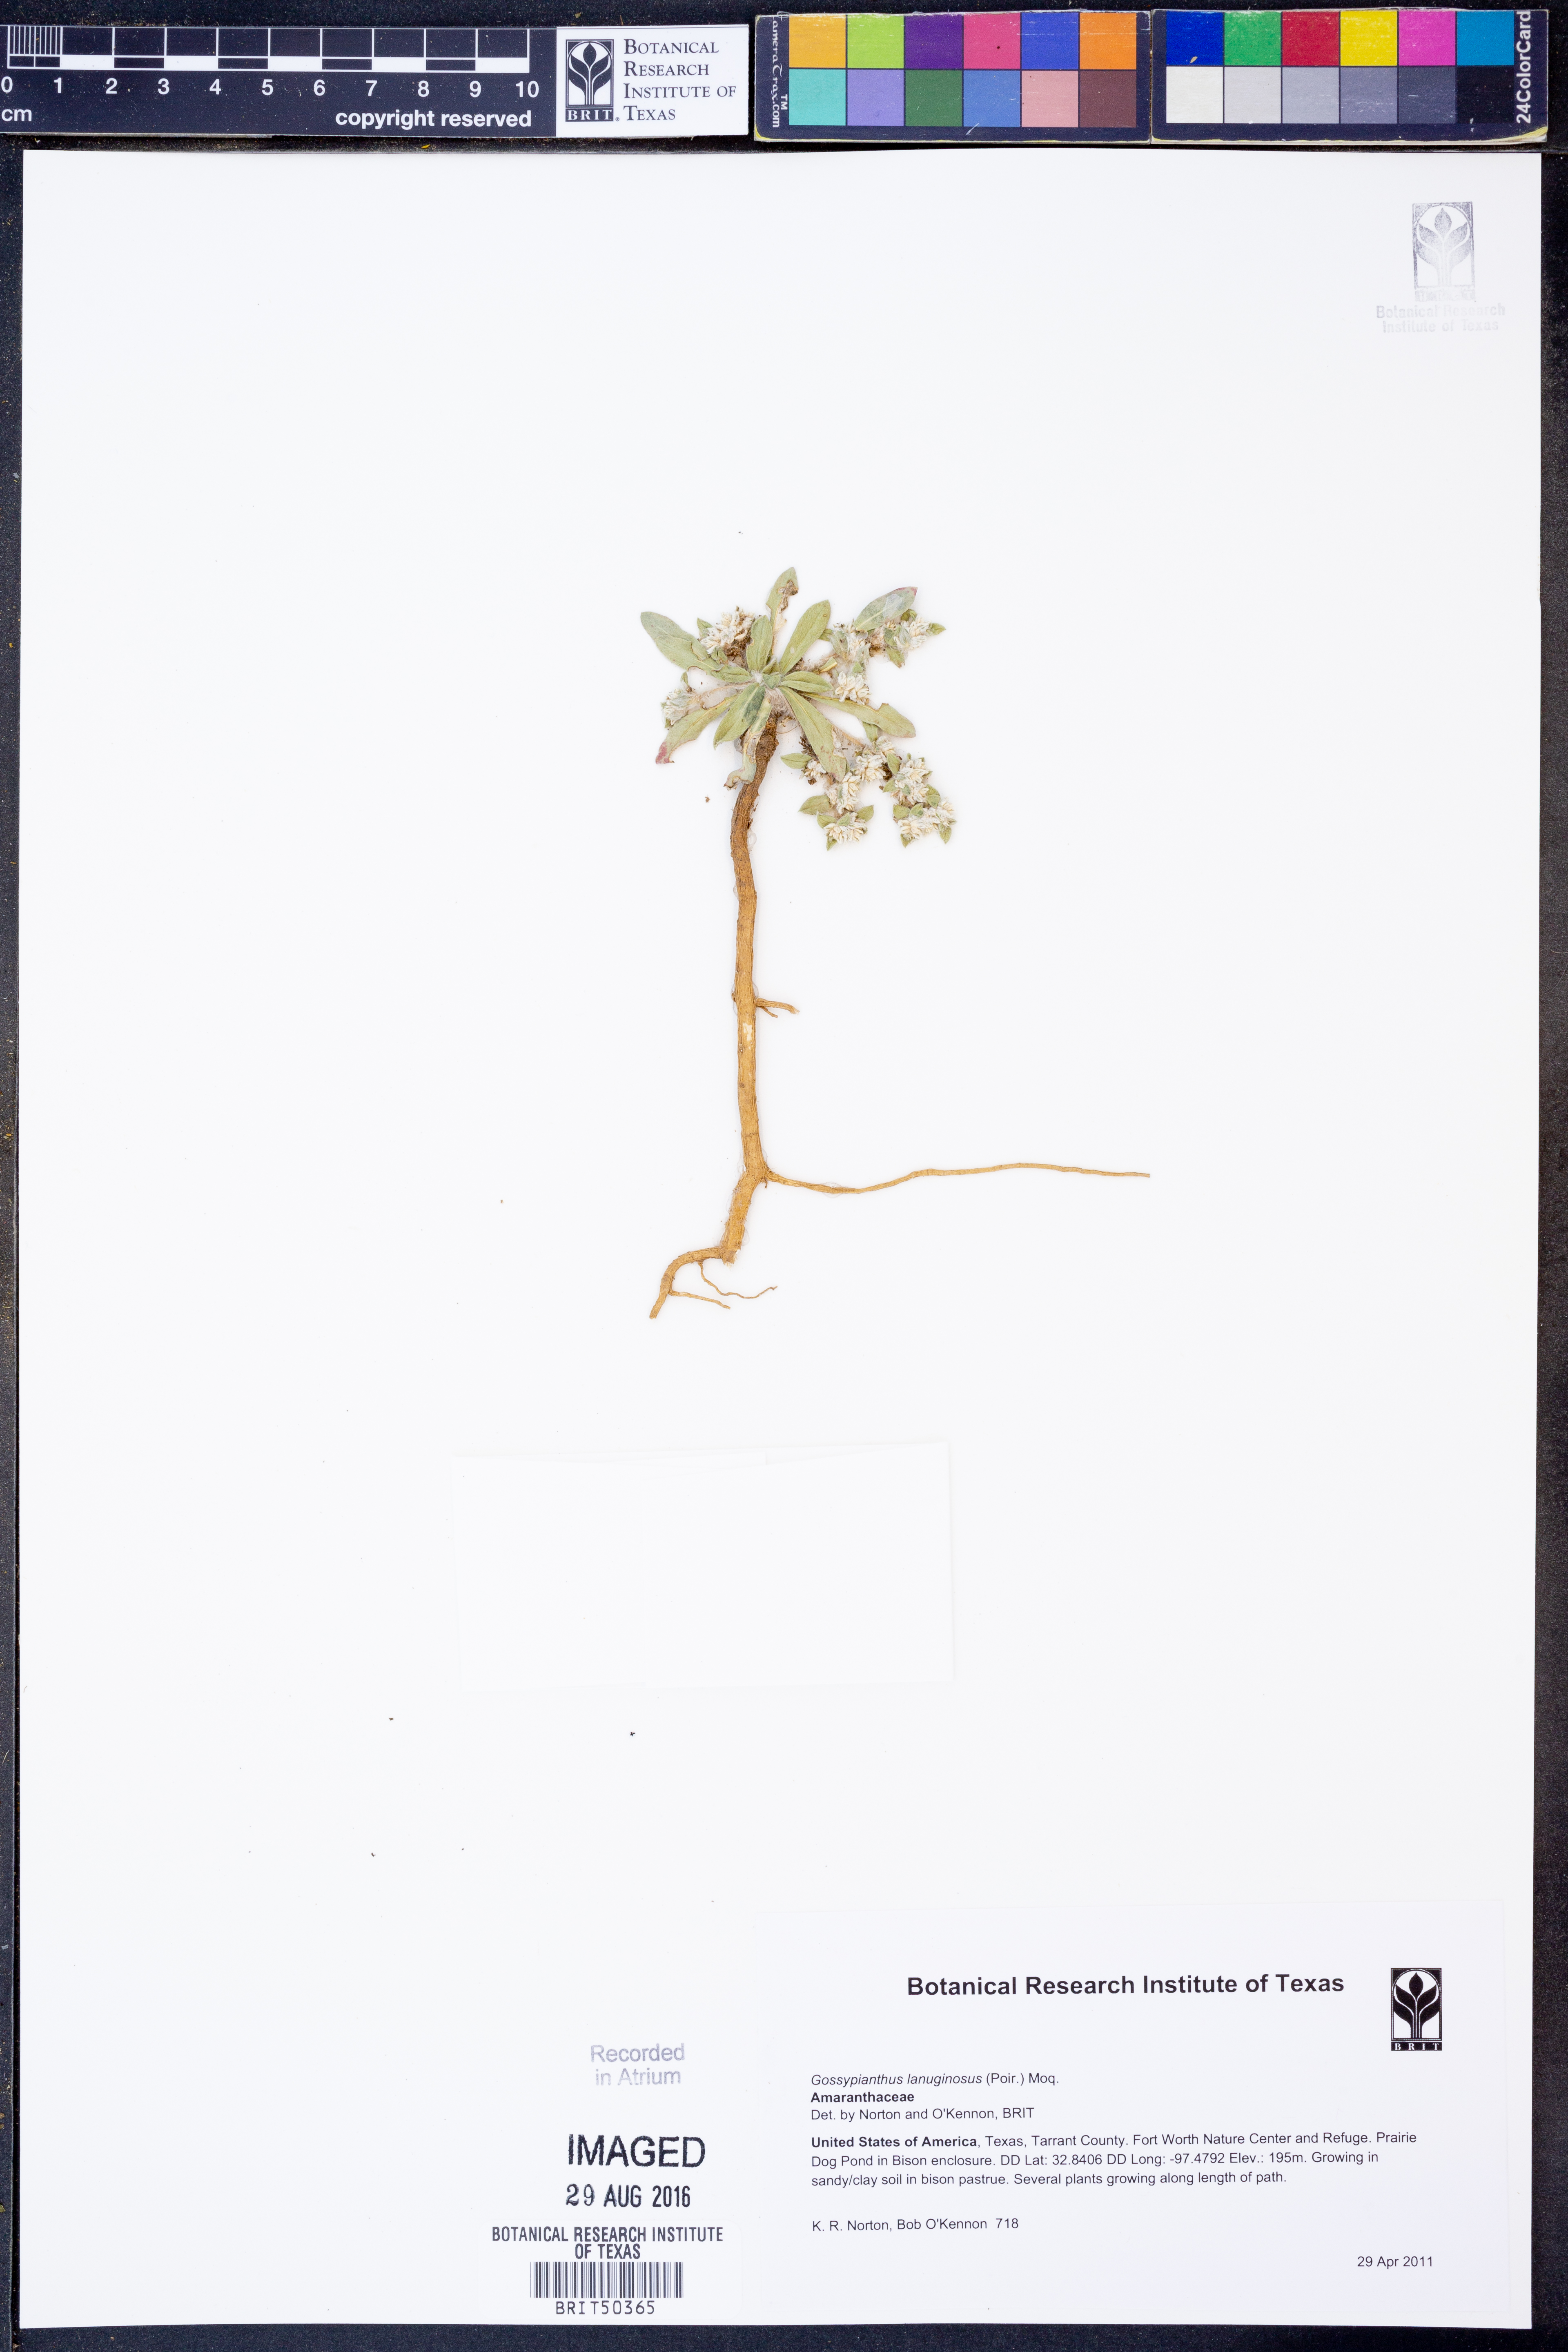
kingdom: Plantae
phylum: Tracheophyta
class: Magnoliopsida
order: Caryophyllales
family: Amaranthaceae
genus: Gomphrena
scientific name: Gomphrena lanuparonychioides
